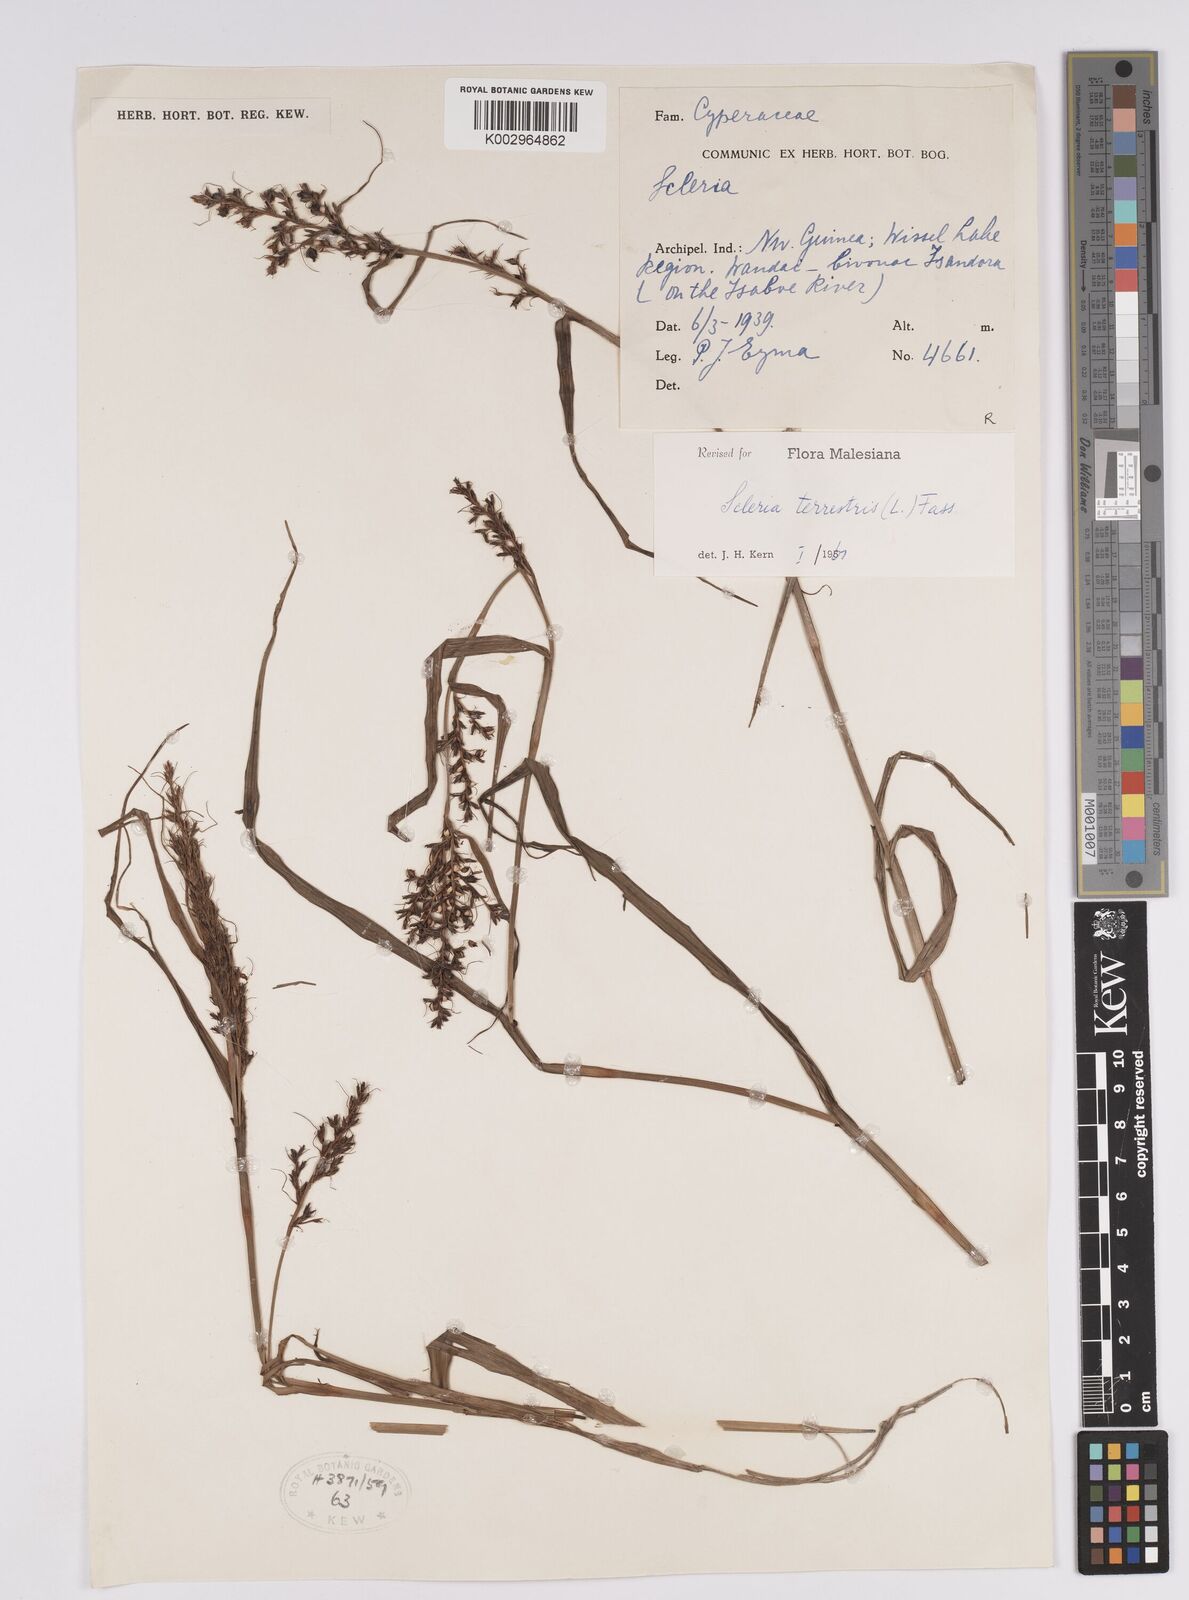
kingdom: Plantae
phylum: Tracheophyta
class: Liliopsida
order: Poales
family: Cyperaceae
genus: Scleria
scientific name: Scleria terrestris
